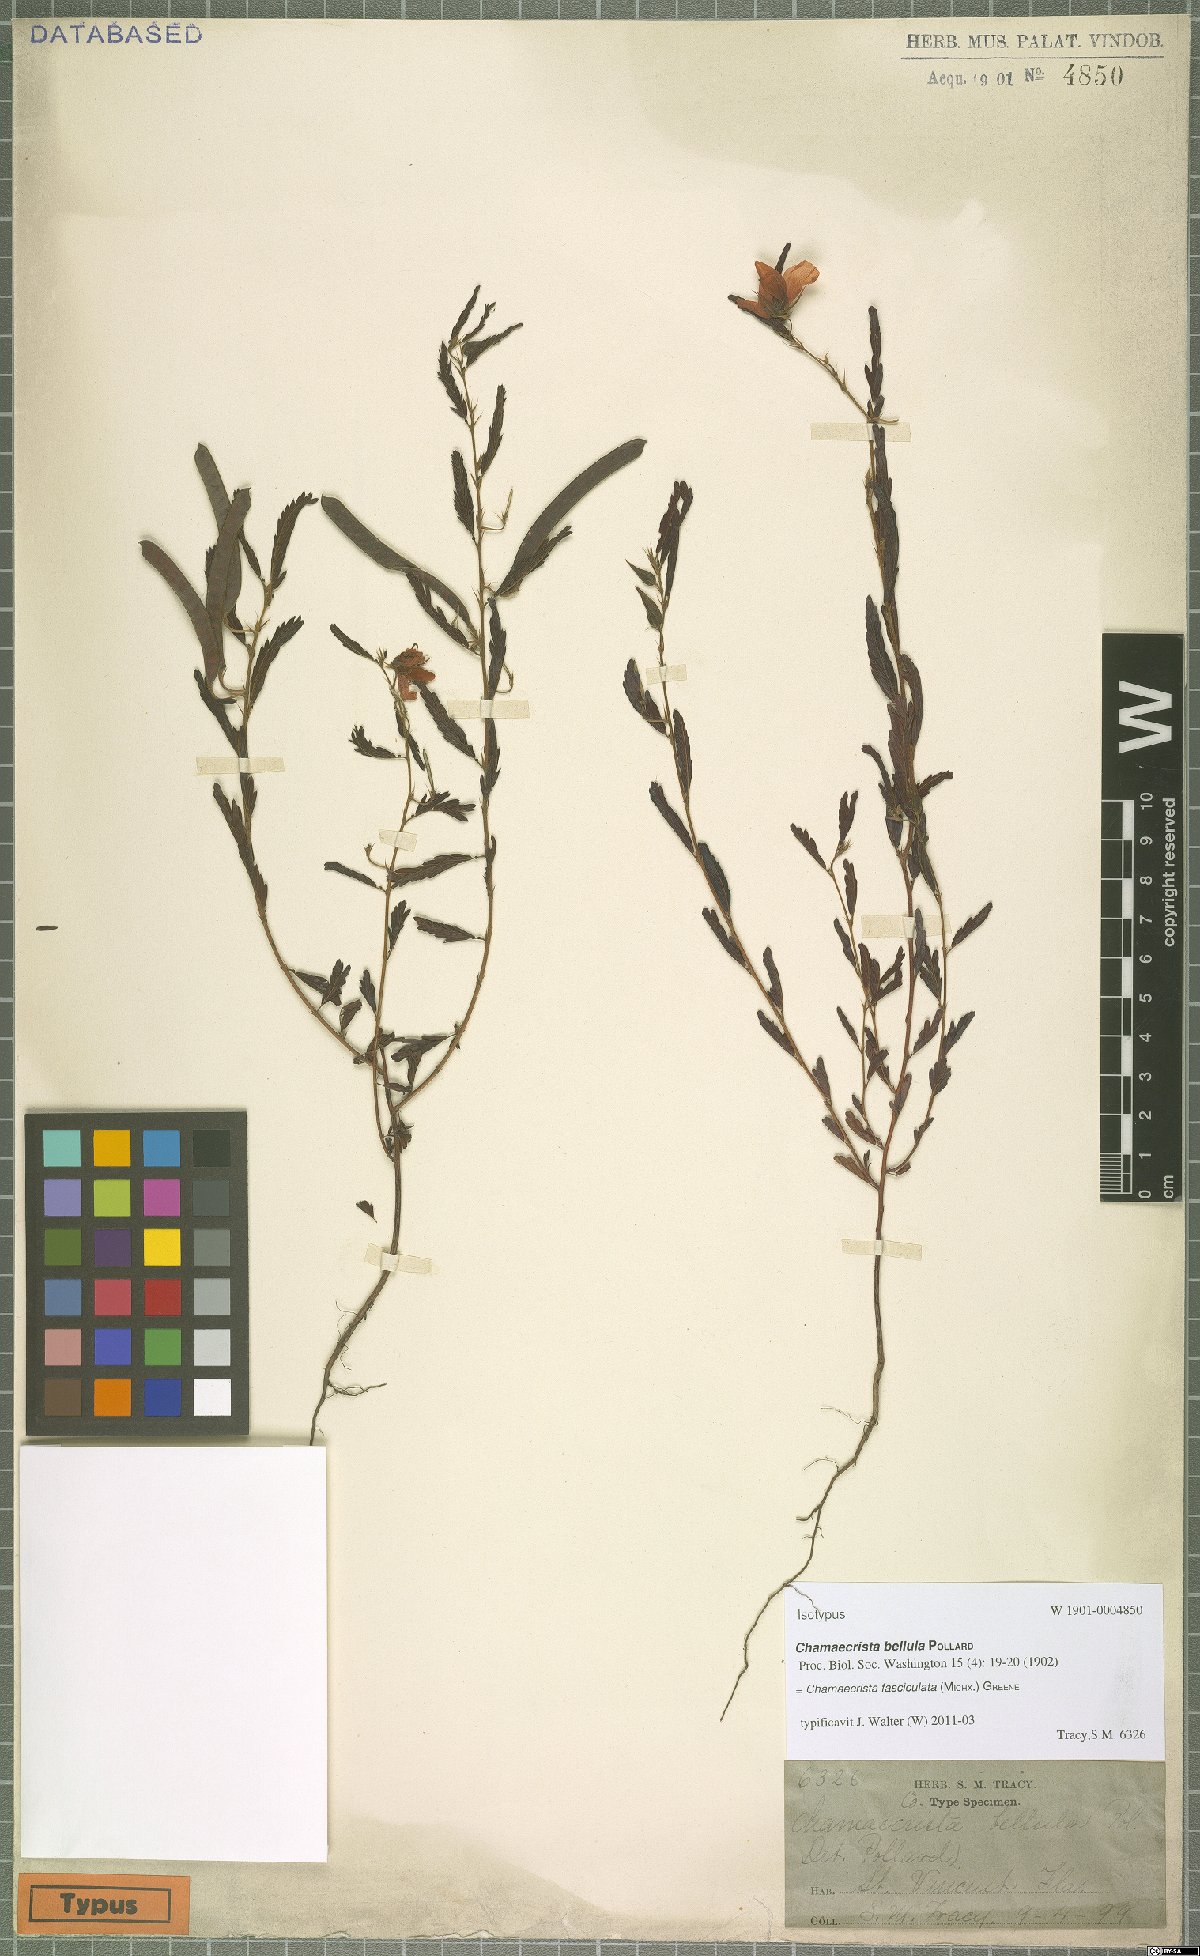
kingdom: Plantae
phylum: Tracheophyta
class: Magnoliopsida
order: Fabales
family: Fabaceae
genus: Chamaecrista
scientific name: Chamaecrista fasciculata
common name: Golden cassia
